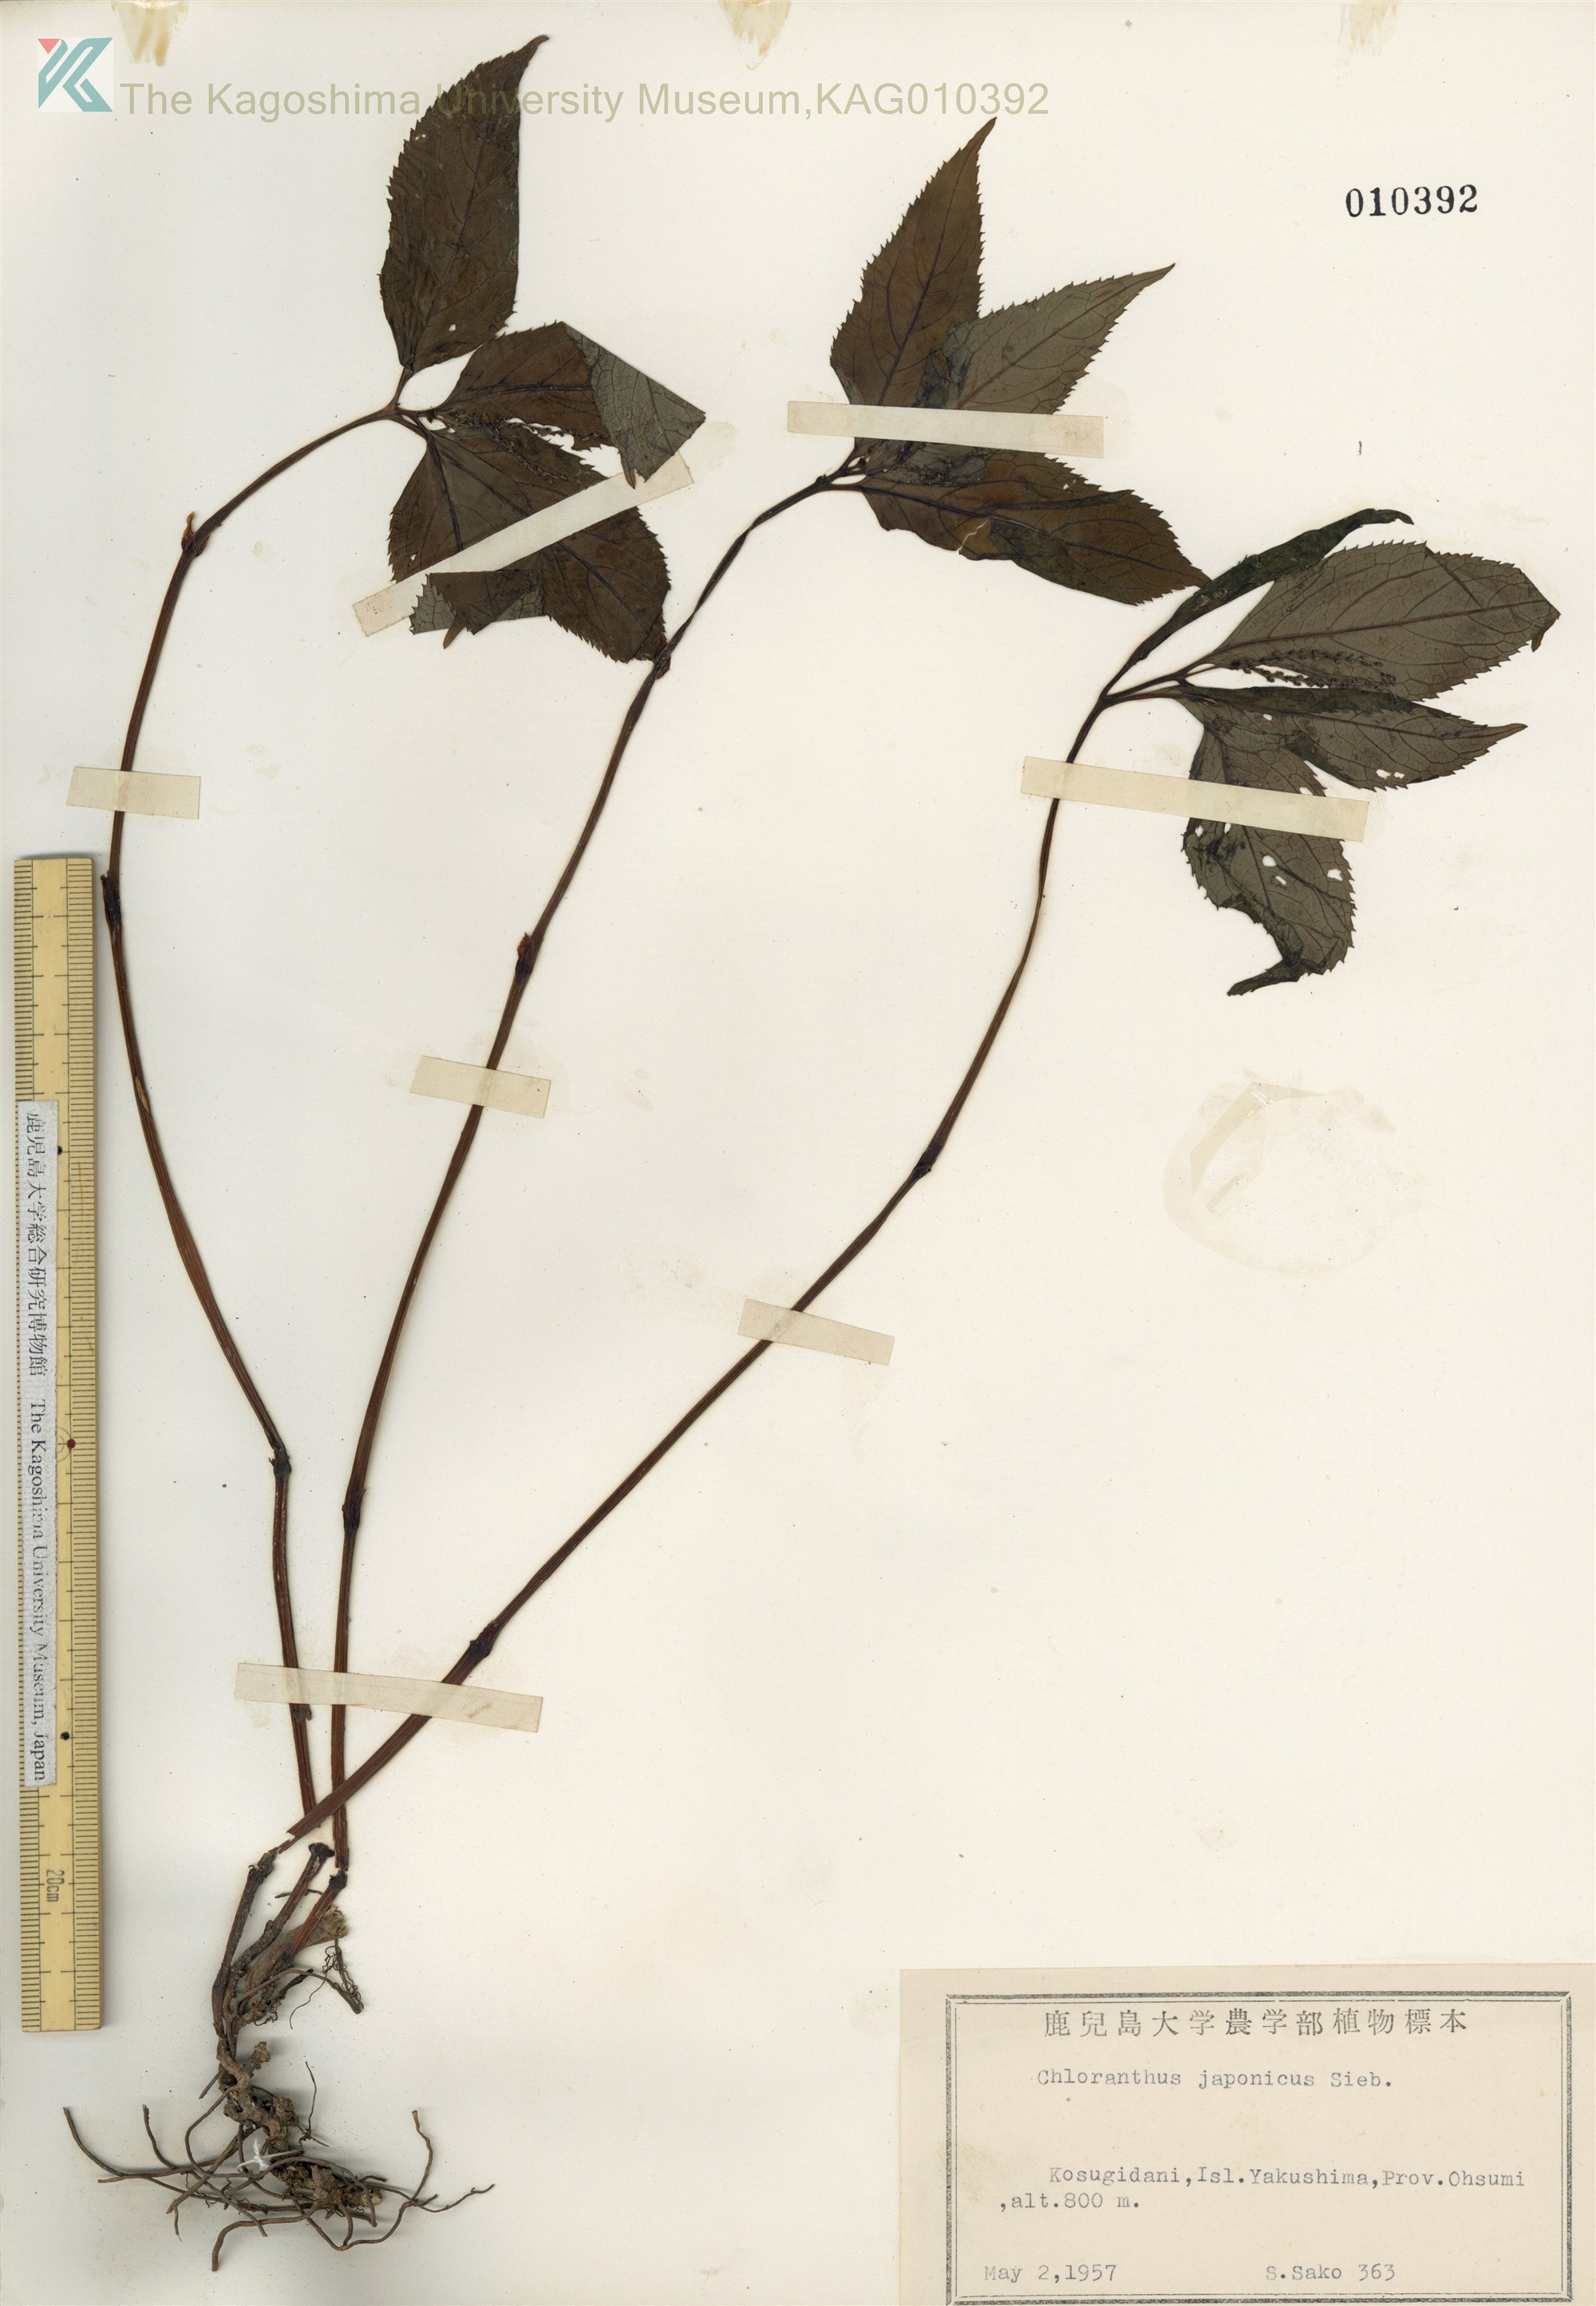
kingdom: Plantae
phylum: Tracheophyta
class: Magnoliopsida
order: Chloranthales
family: Chloranthaceae
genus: Chloranthus
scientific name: Chloranthus serratus
